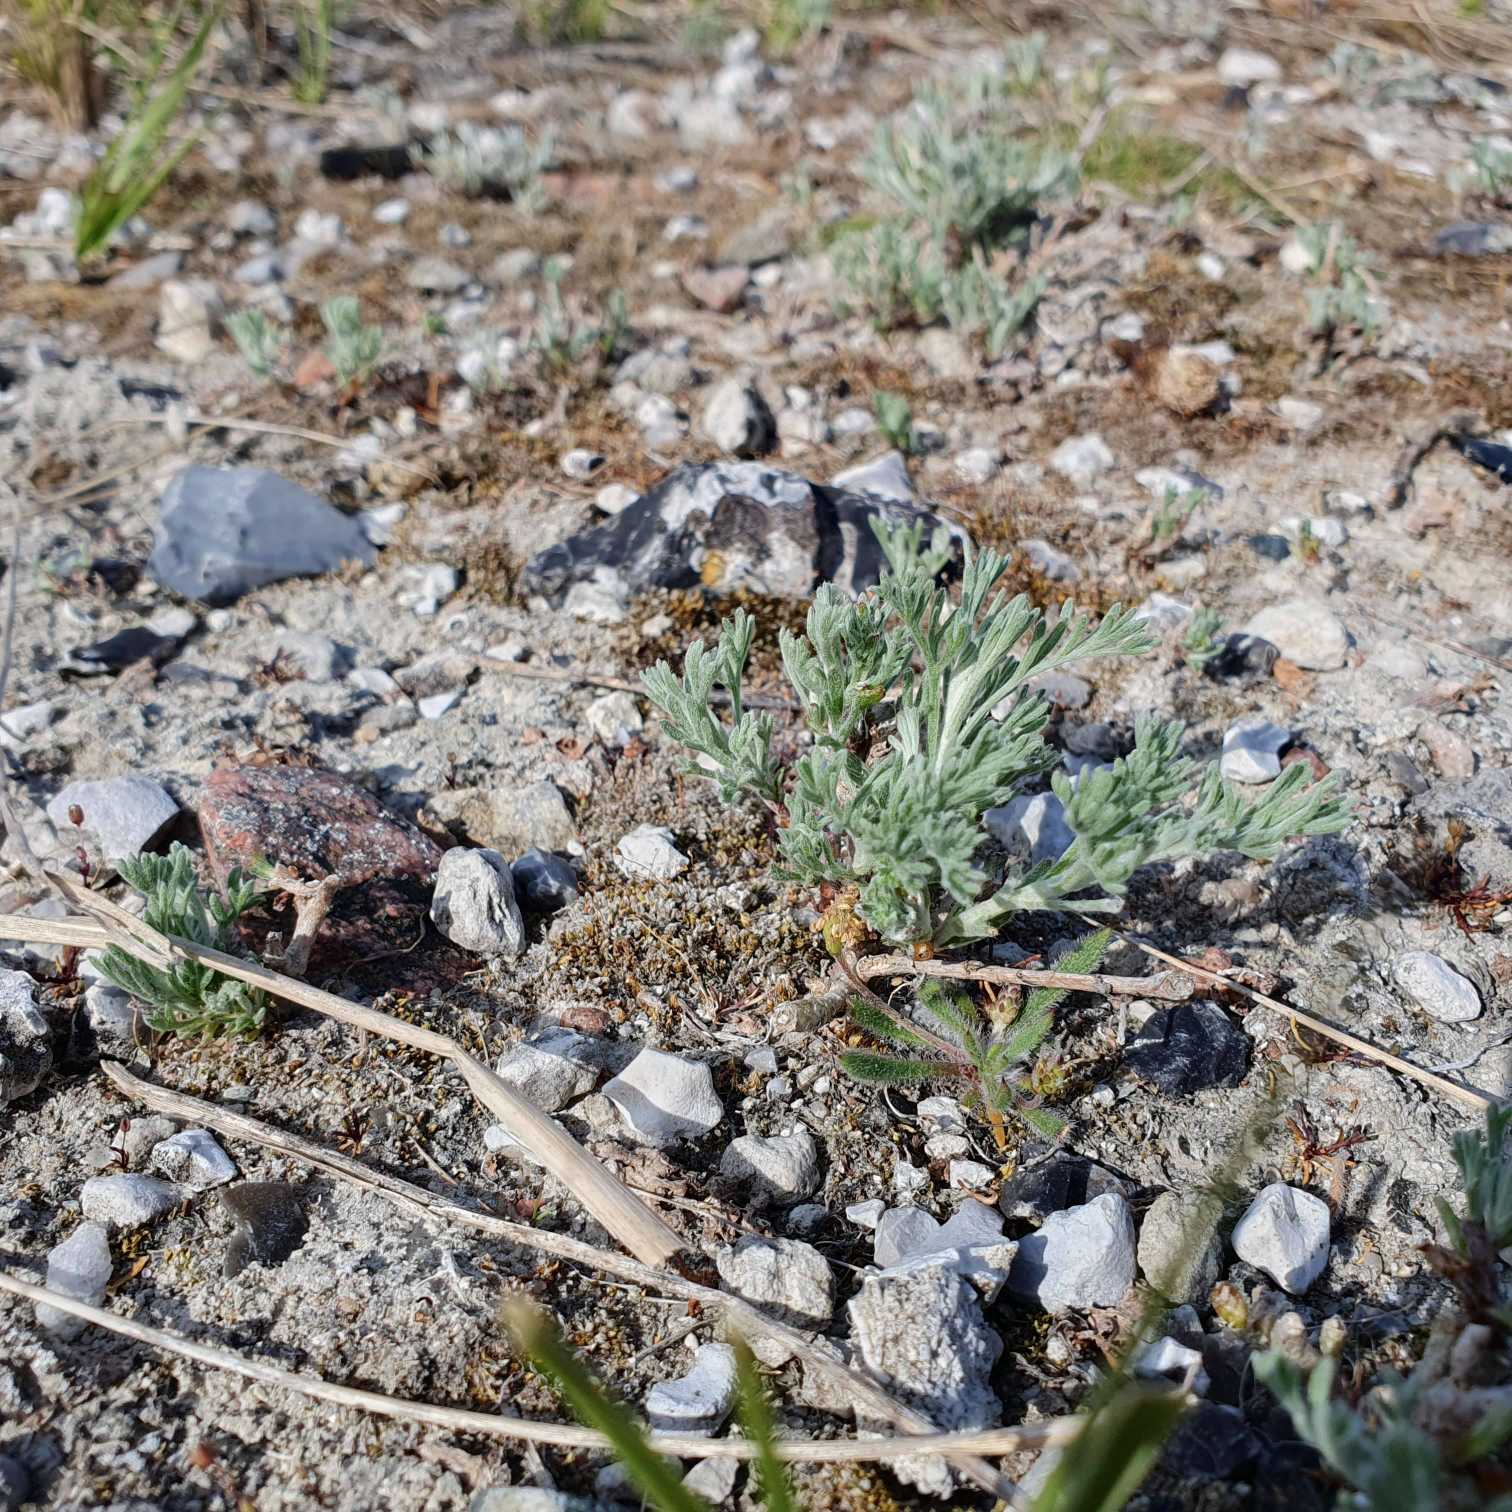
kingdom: Plantae
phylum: Tracheophyta
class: Magnoliopsida
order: Asterales
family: Asteraceae
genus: Artemisia
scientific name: Artemisia maritima
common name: Strandmalurt
